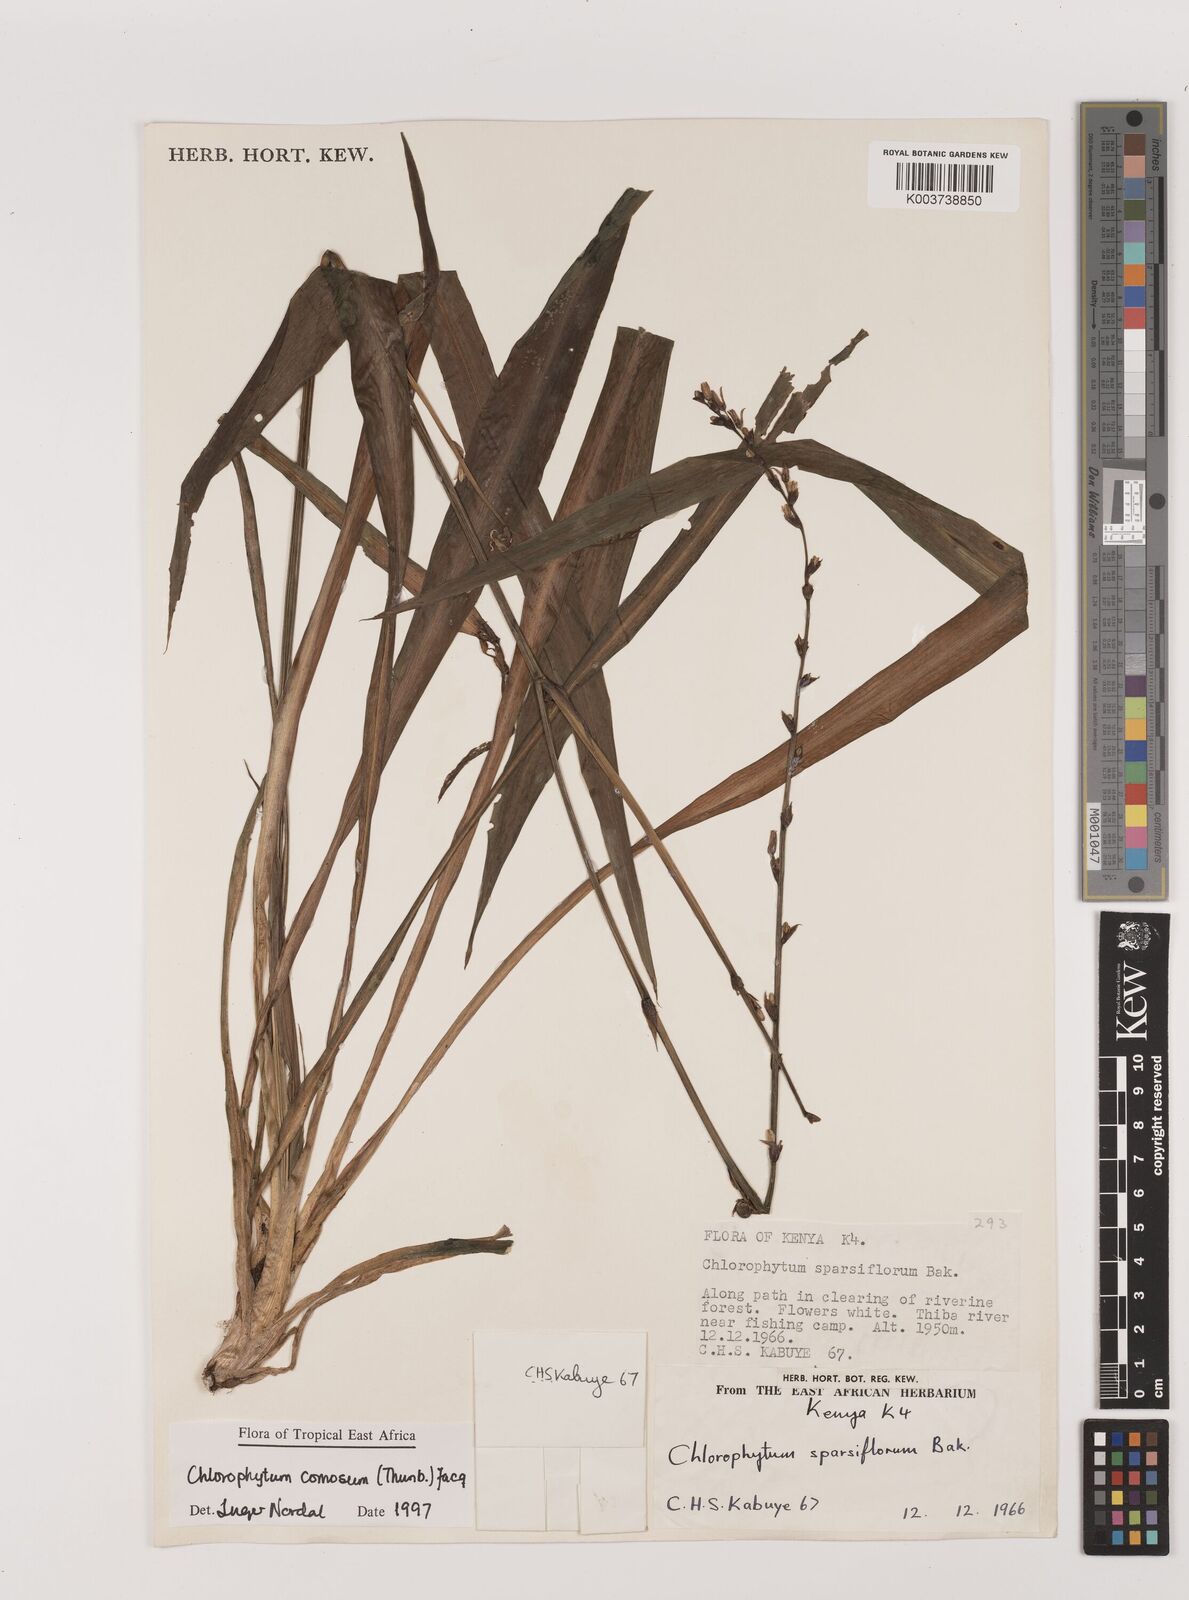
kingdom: Plantae
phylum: Tracheophyta
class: Liliopsida
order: Asparagales
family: Asparagaceae
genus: Chlorophytum
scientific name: Chlorophytum comosum
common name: Spider plant
